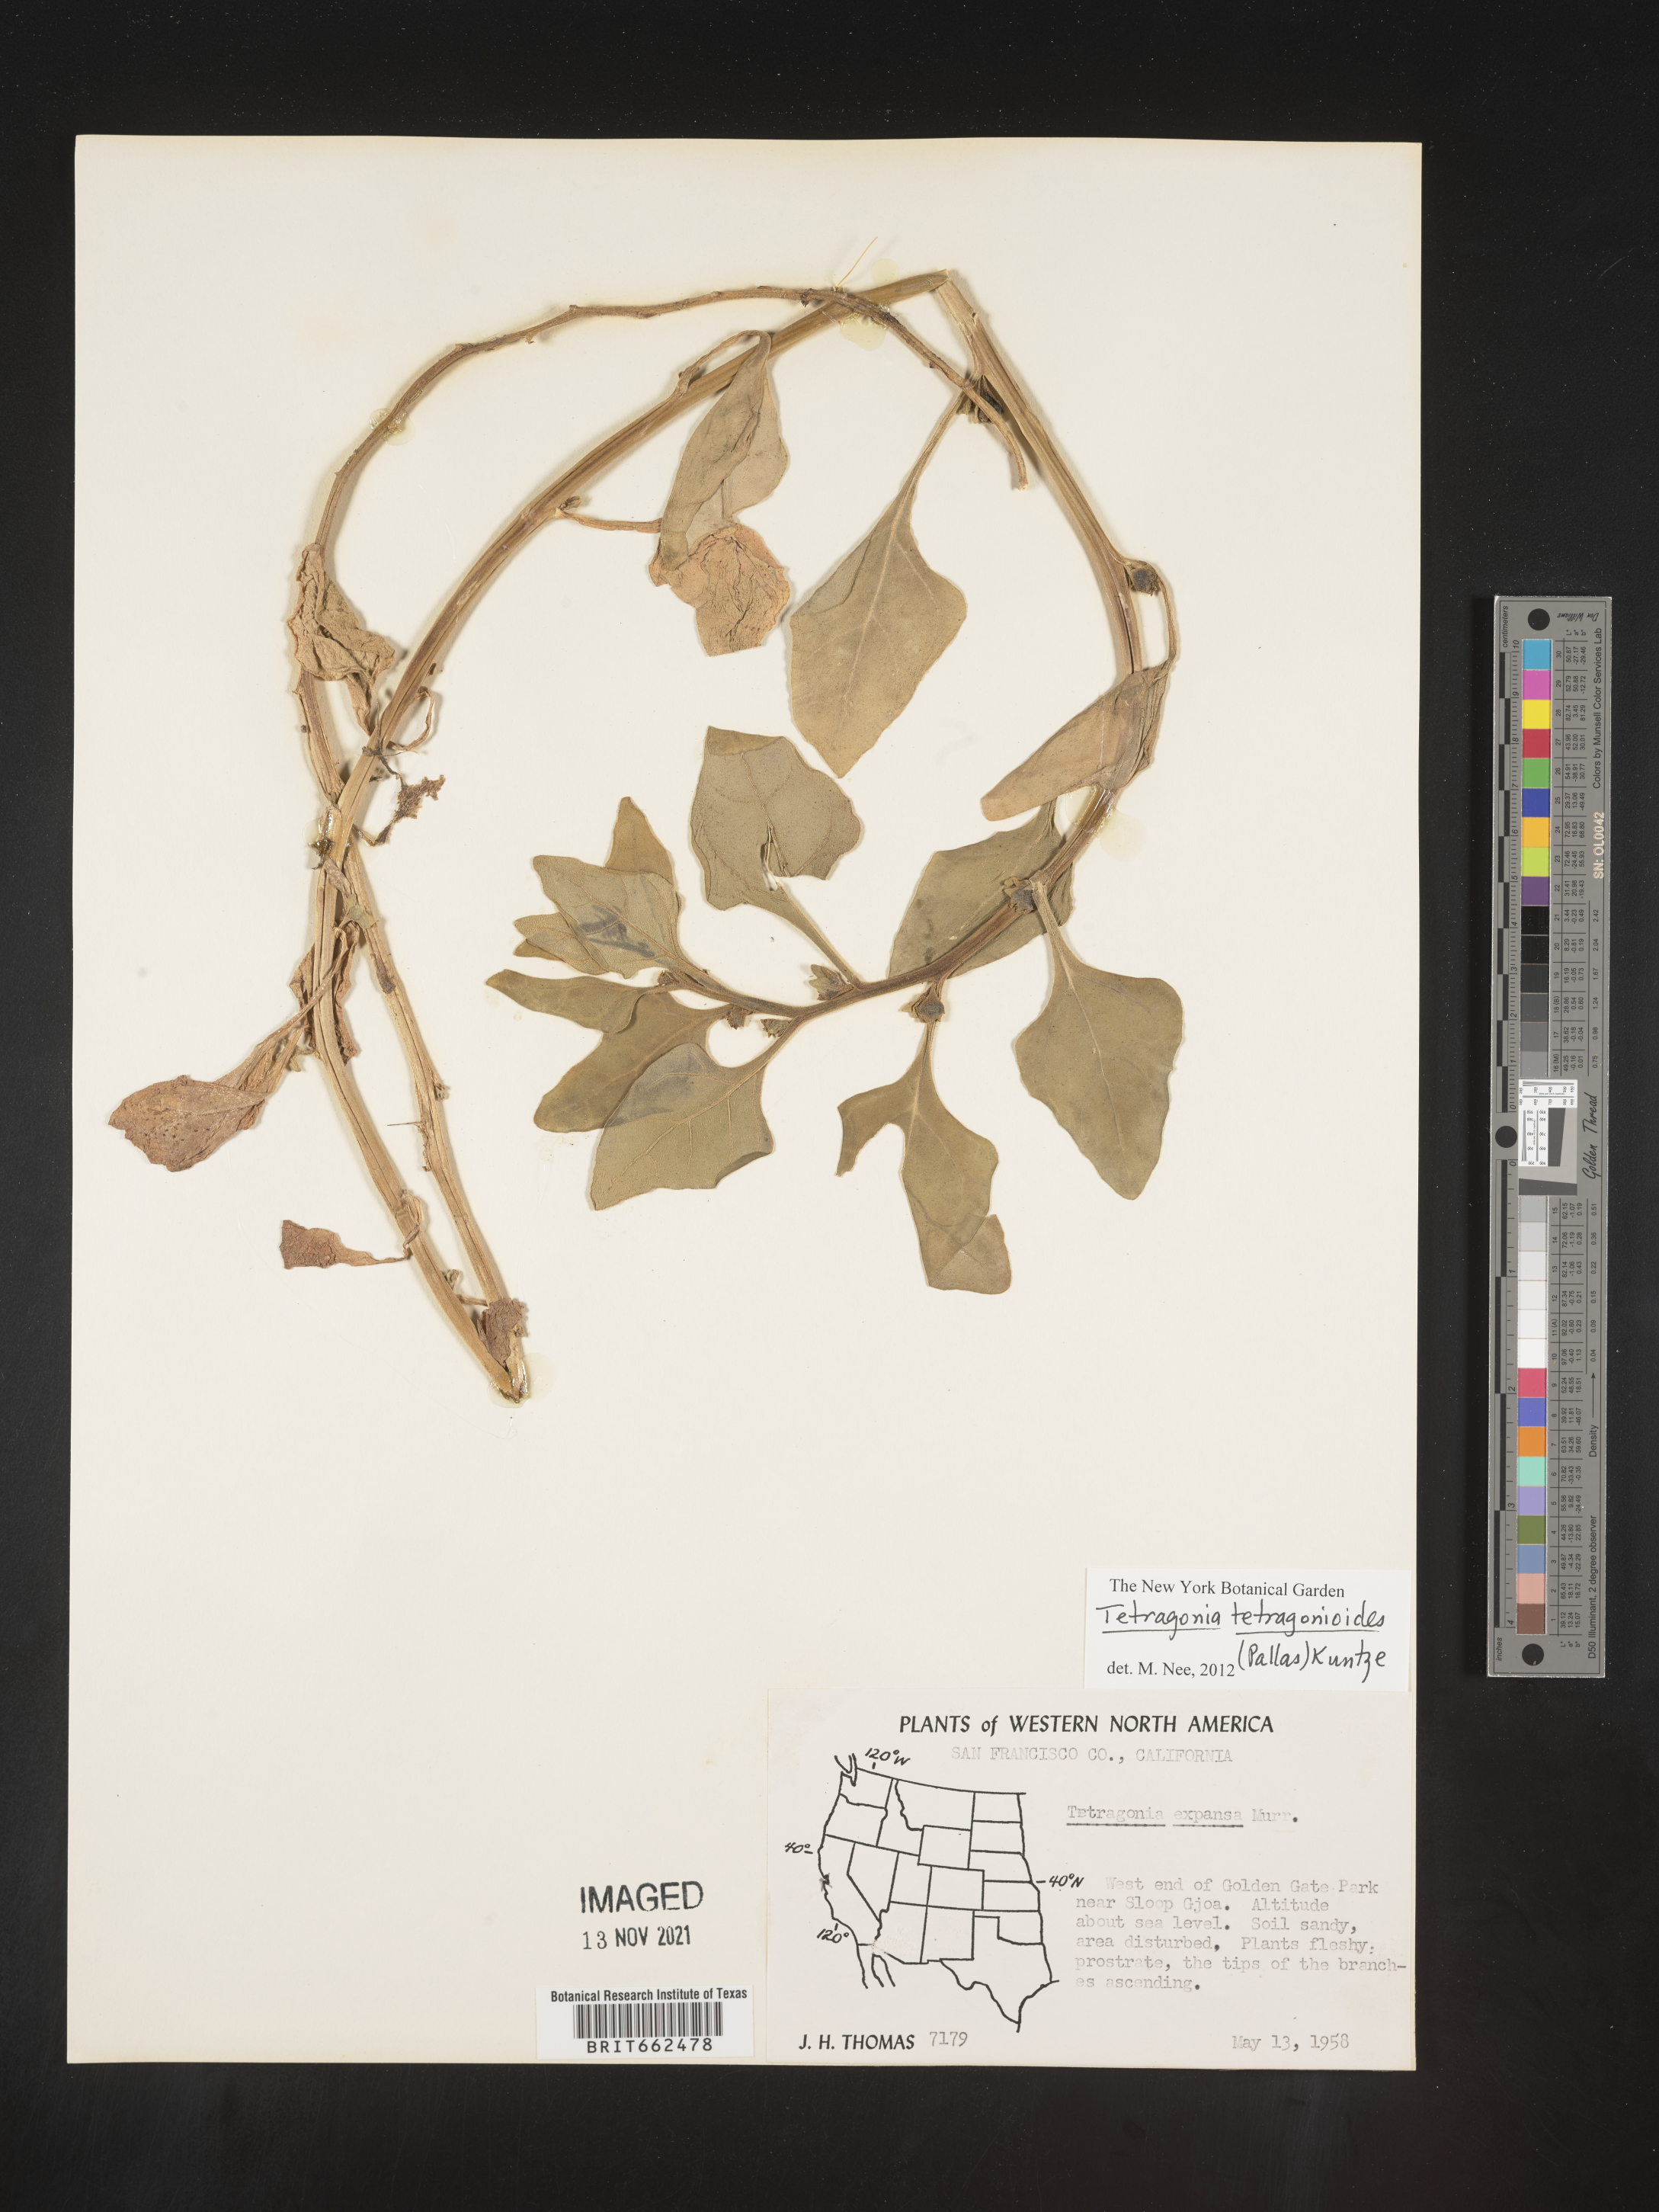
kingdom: Plantae
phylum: Tracheophyta
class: Magnoliopsida
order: Caryophyllales
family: Aizoaceae
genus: Tetragonia
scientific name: Tetragonia
